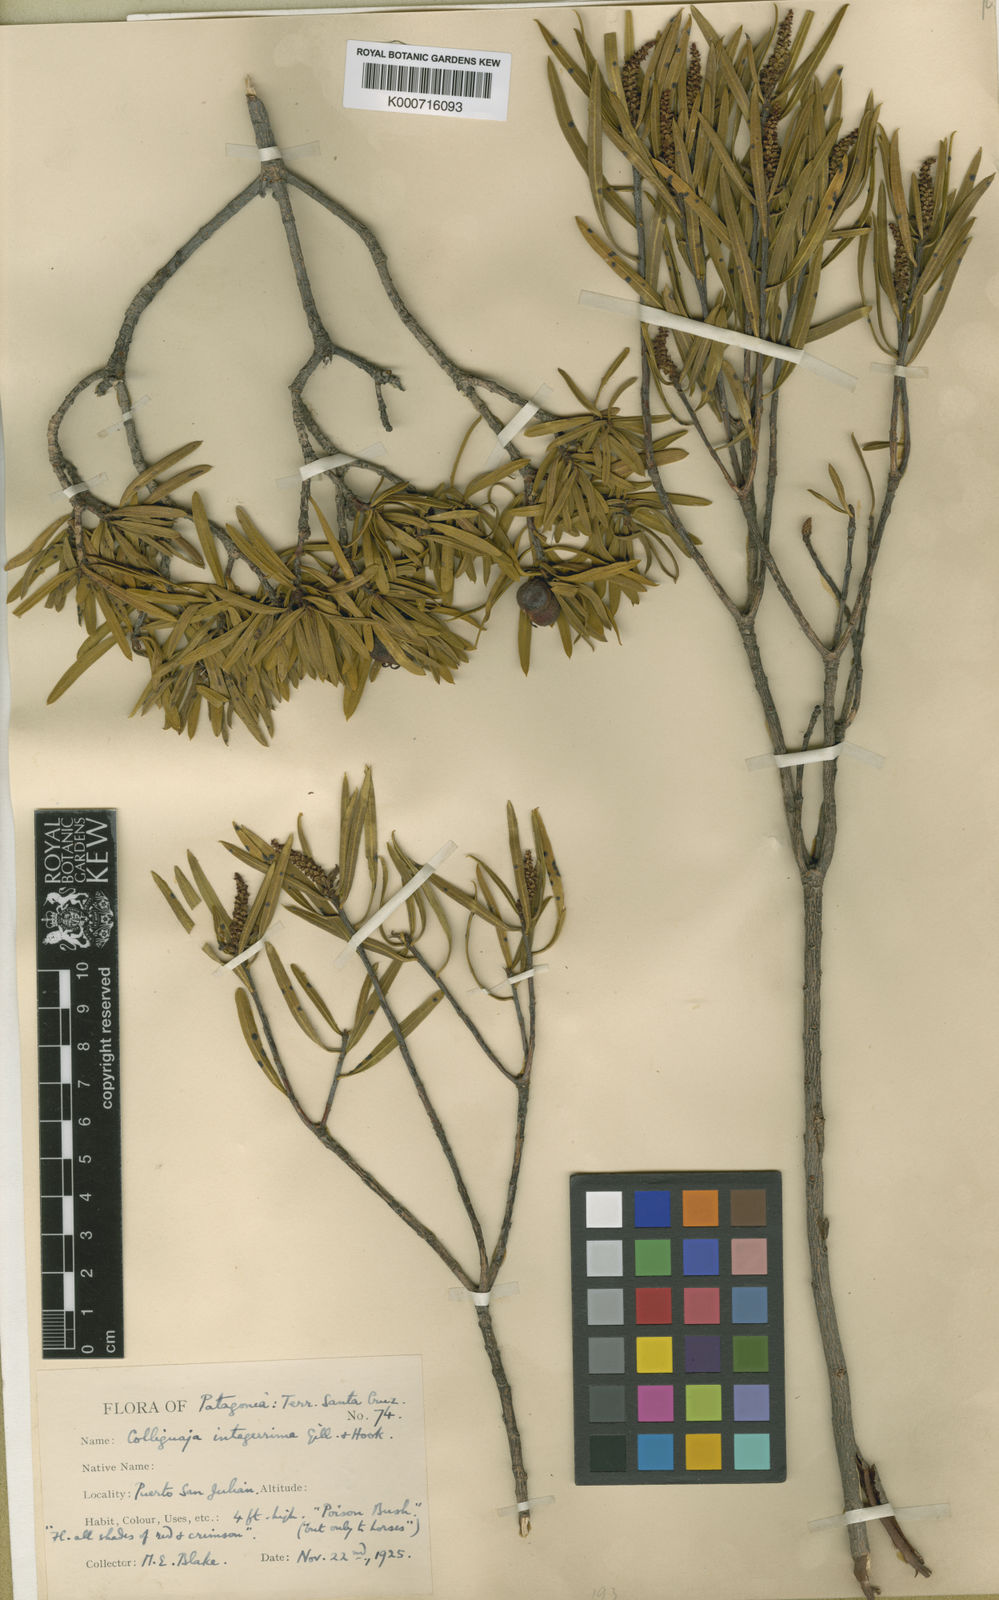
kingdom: Plantae
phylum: Tracheophyta
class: Magnoliopsida
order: Malpighiales
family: Euphorbiaceae
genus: Colliguaja
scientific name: Colliguaja integerrima
